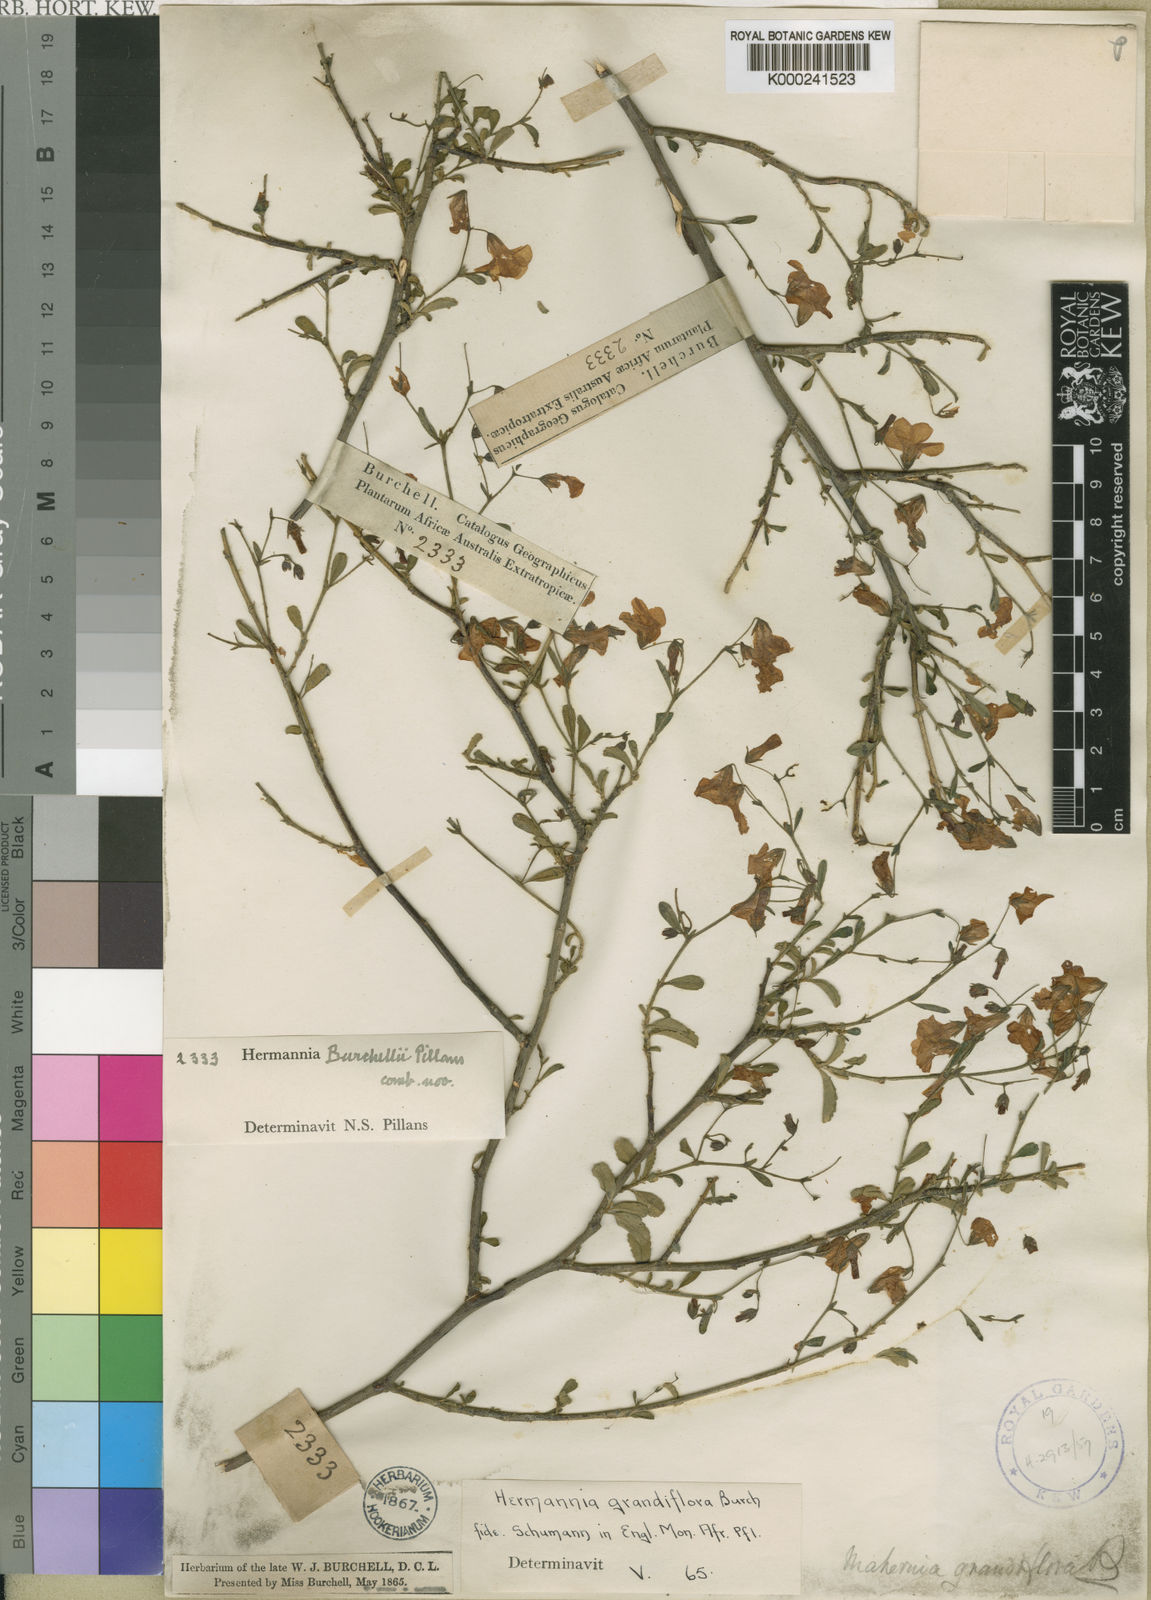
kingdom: Plantae
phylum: Tracheophyta
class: Magnoliopsida
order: Malvales
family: Malvaceae
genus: Hermannia
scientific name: Hermannia
